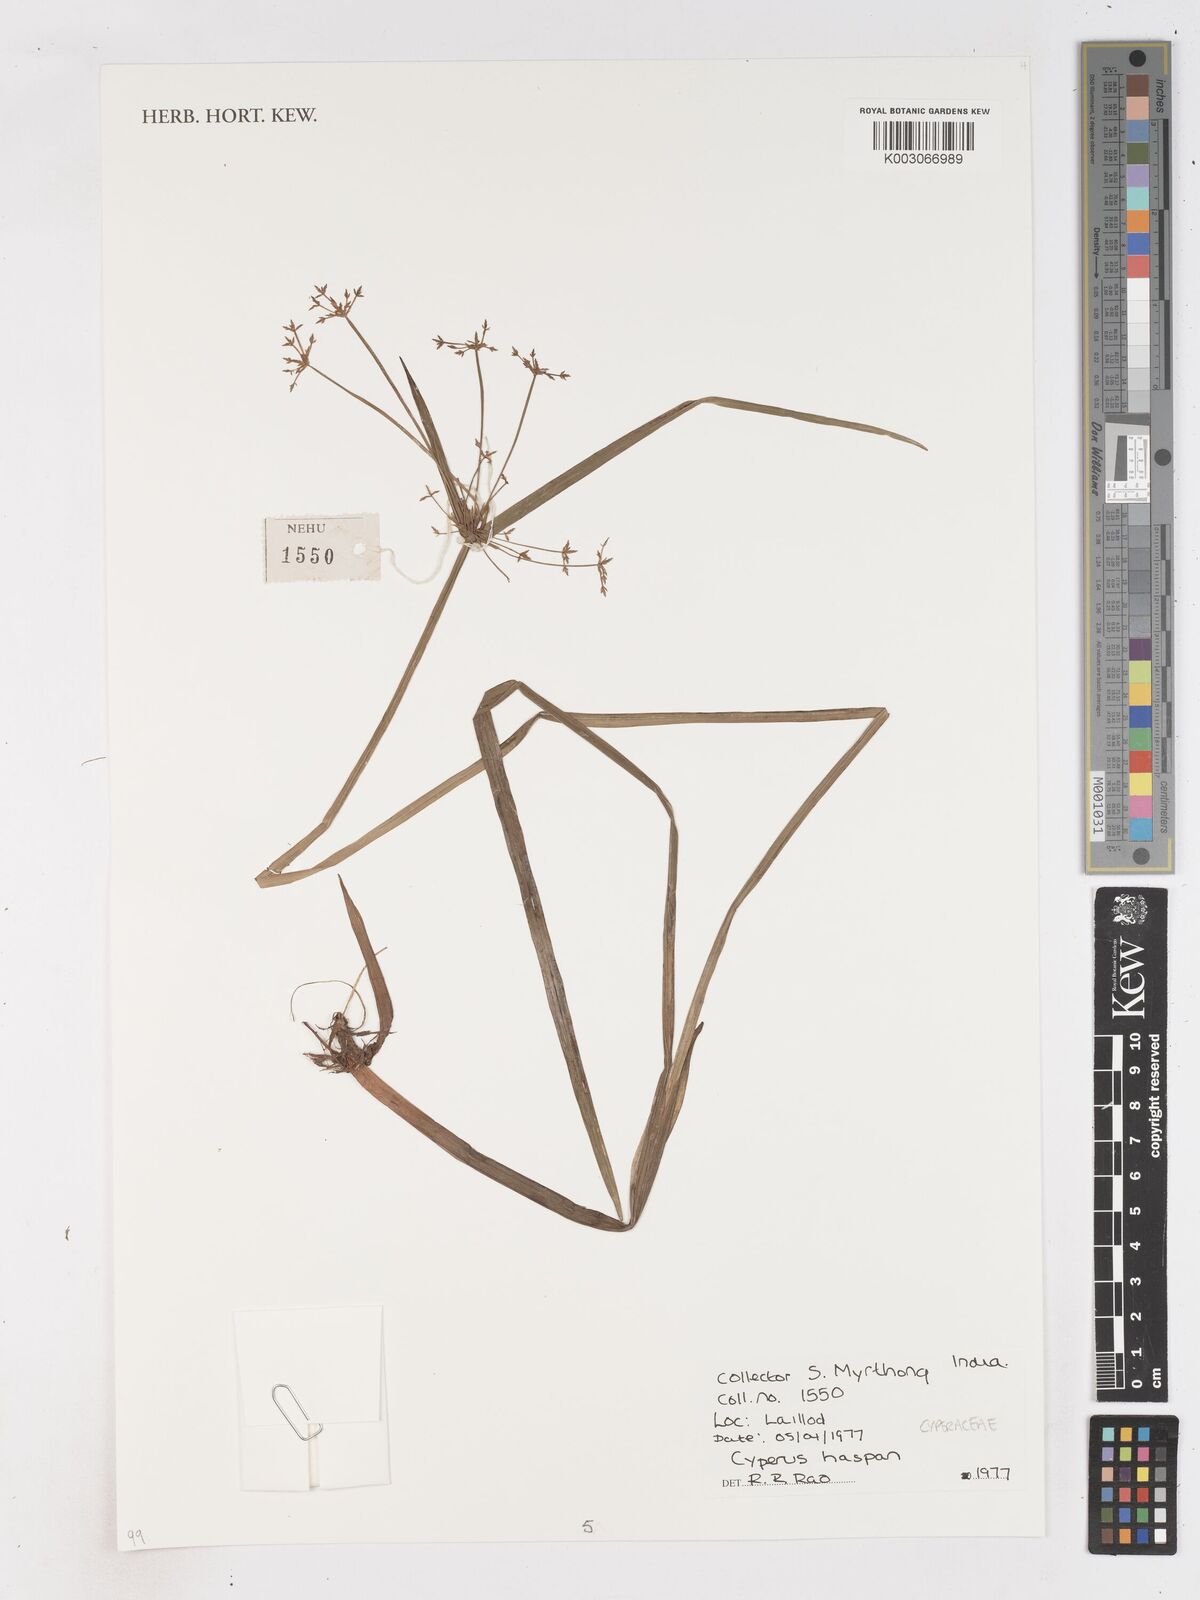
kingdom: Plantae
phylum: Tracheophyta
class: Liliopsida
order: Poales
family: Cyperaceae
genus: Cyperus
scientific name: Cyperus haspan
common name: Haspan flatsedge
